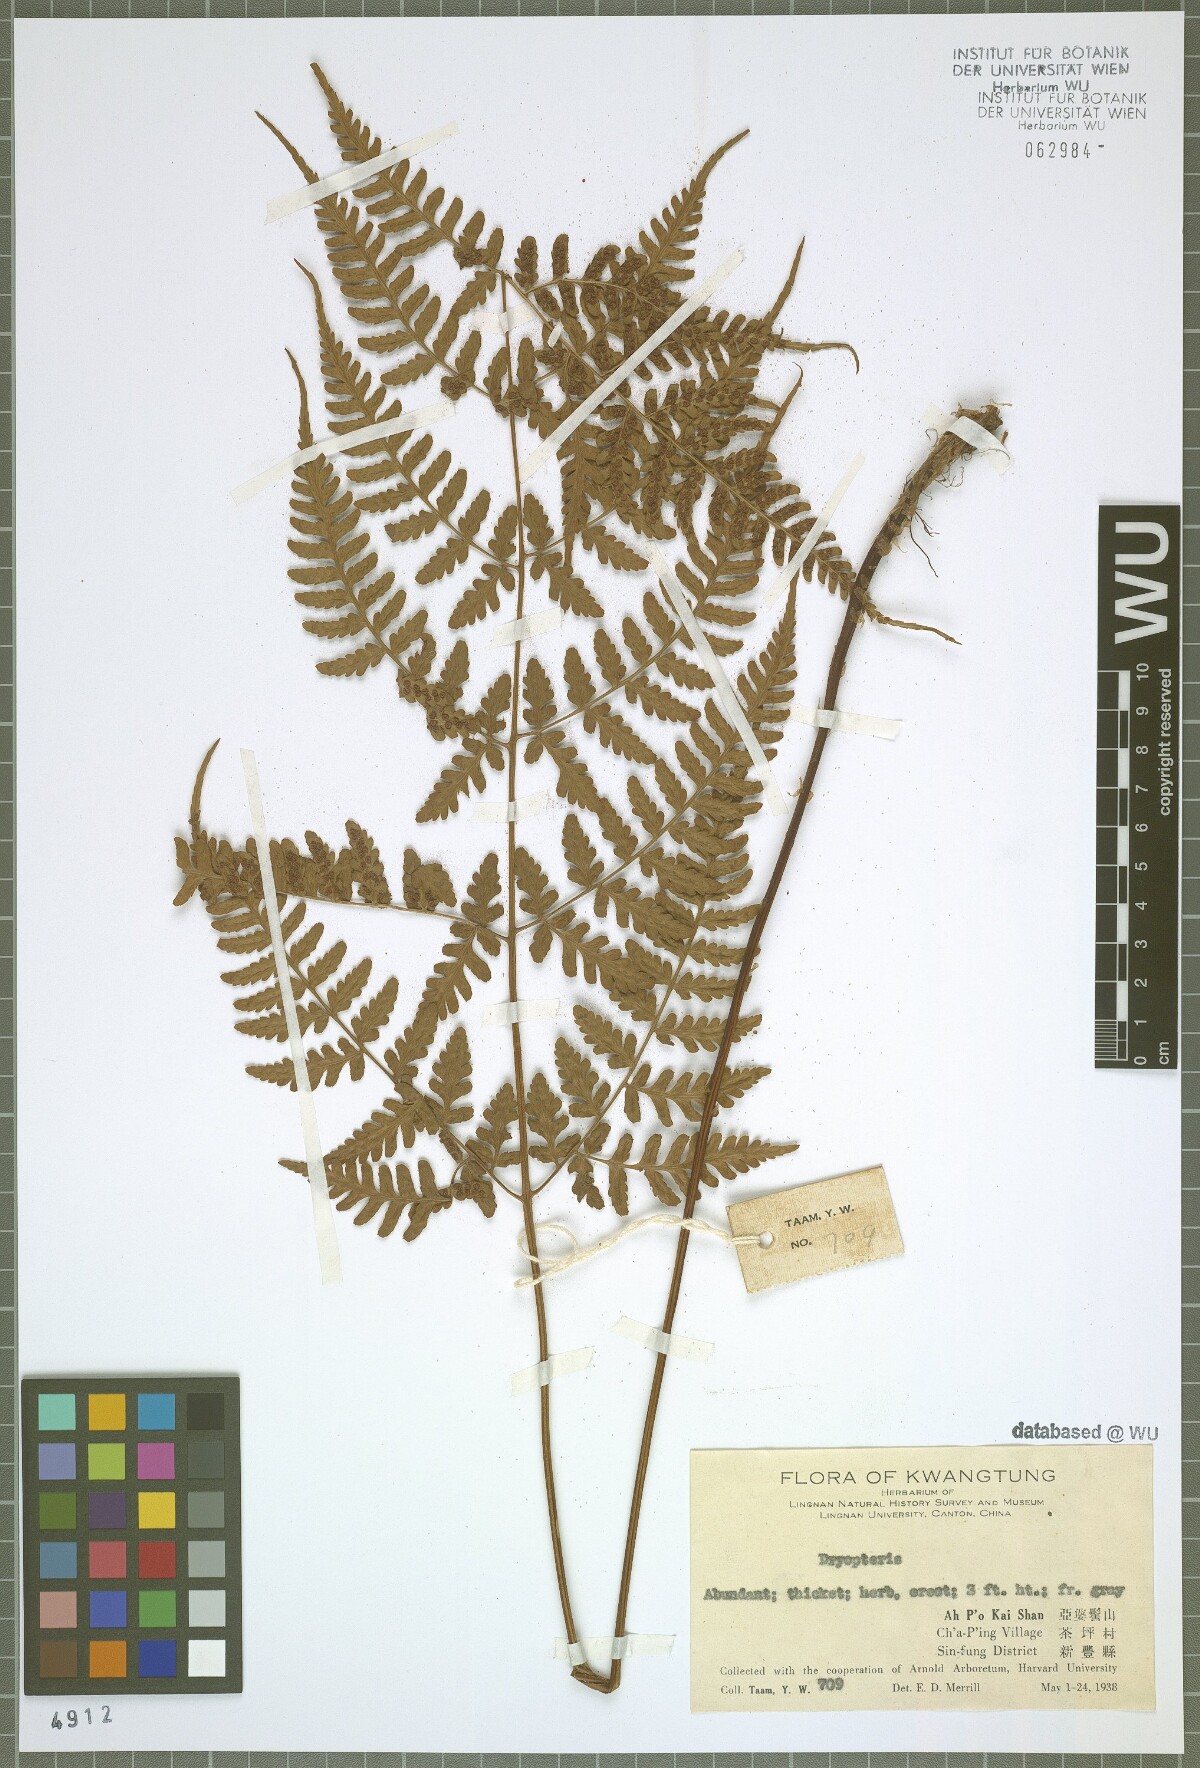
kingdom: Plantae
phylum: Tracheophyta
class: Polypodiopsida
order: Polypodiales
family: Dryopteridaceae
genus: Dryopteris
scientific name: Dryopteris
